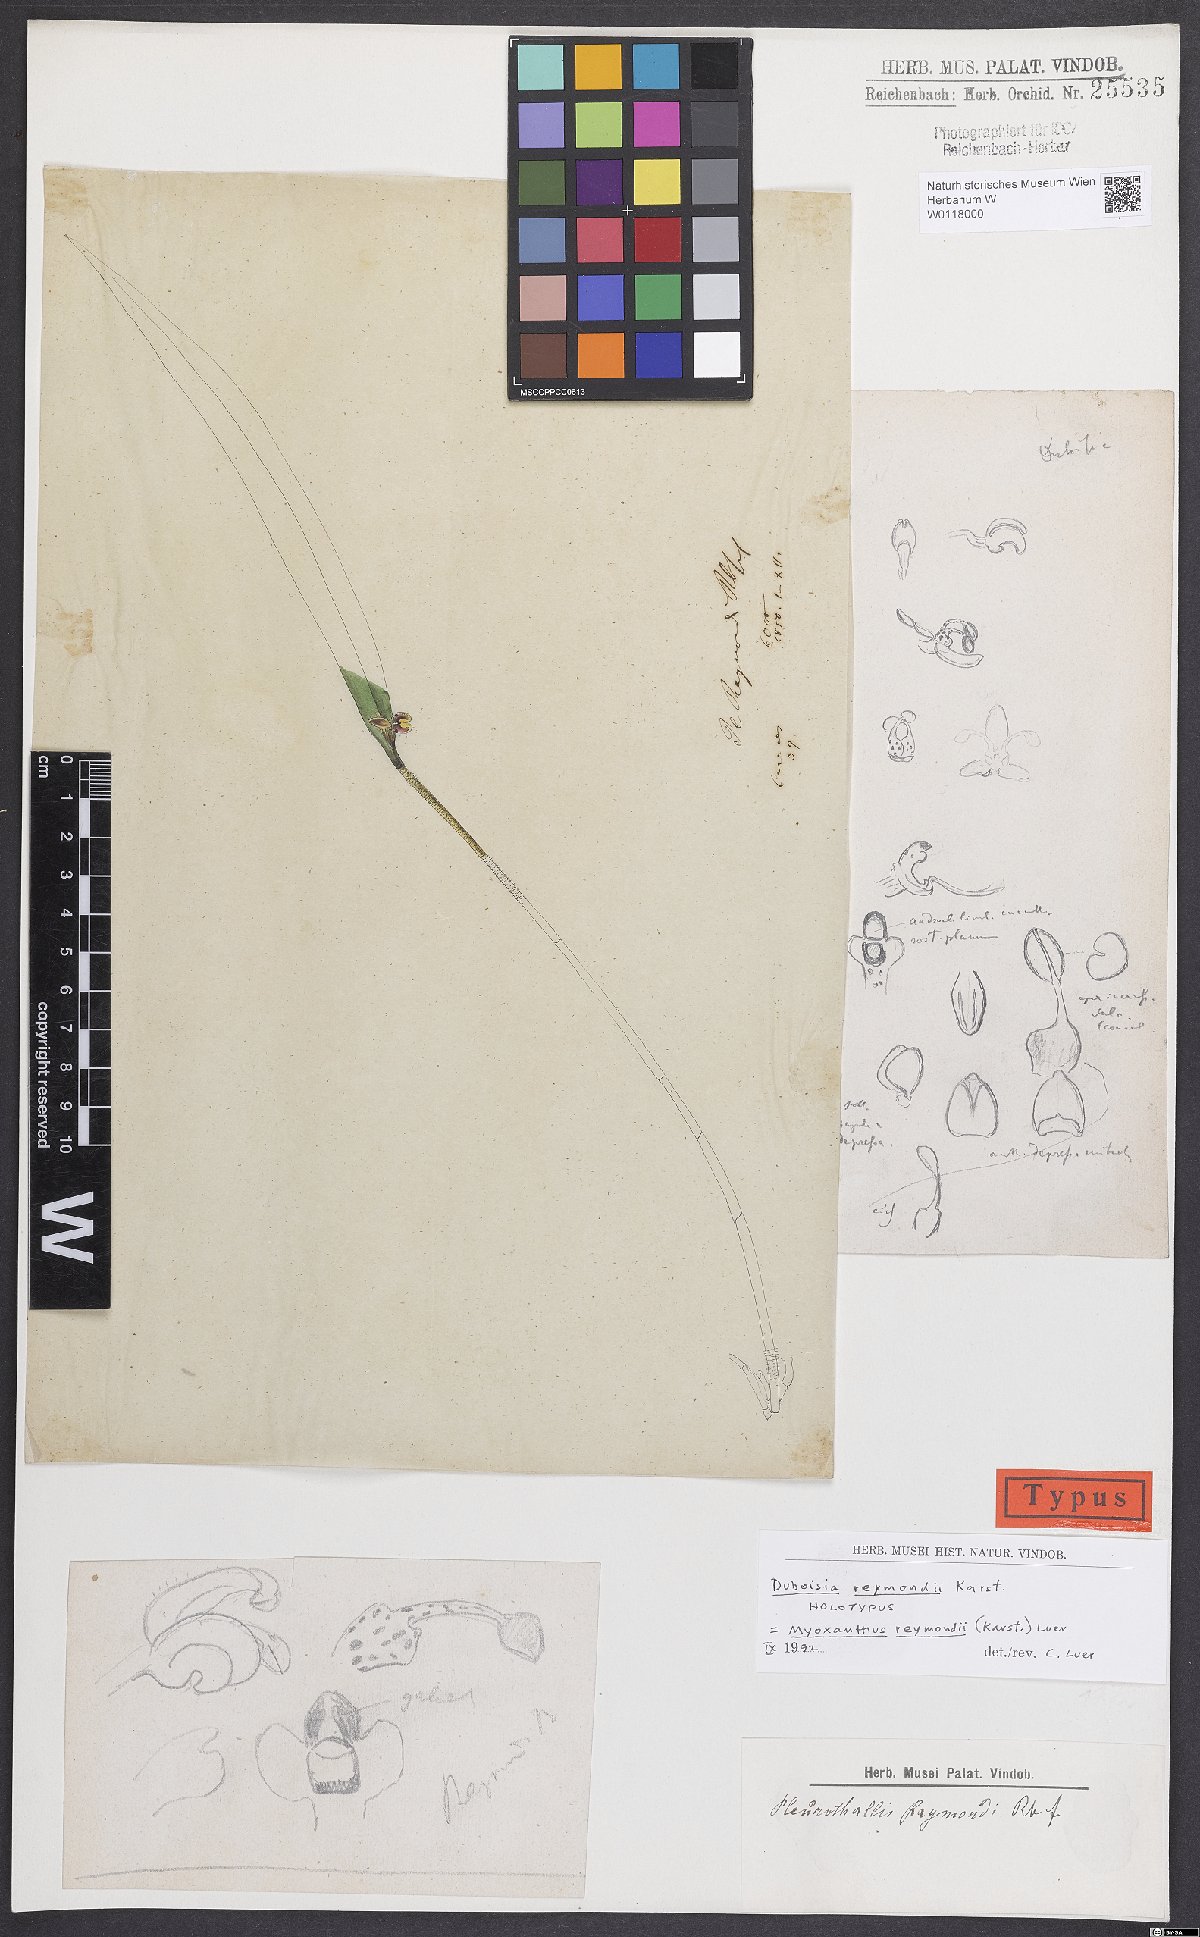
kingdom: Plantae
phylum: Tracheophyta
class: Liliopsida
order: Asparagales
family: Orchidaceae
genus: Myoxanthus
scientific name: Myoxanthus reymondii
